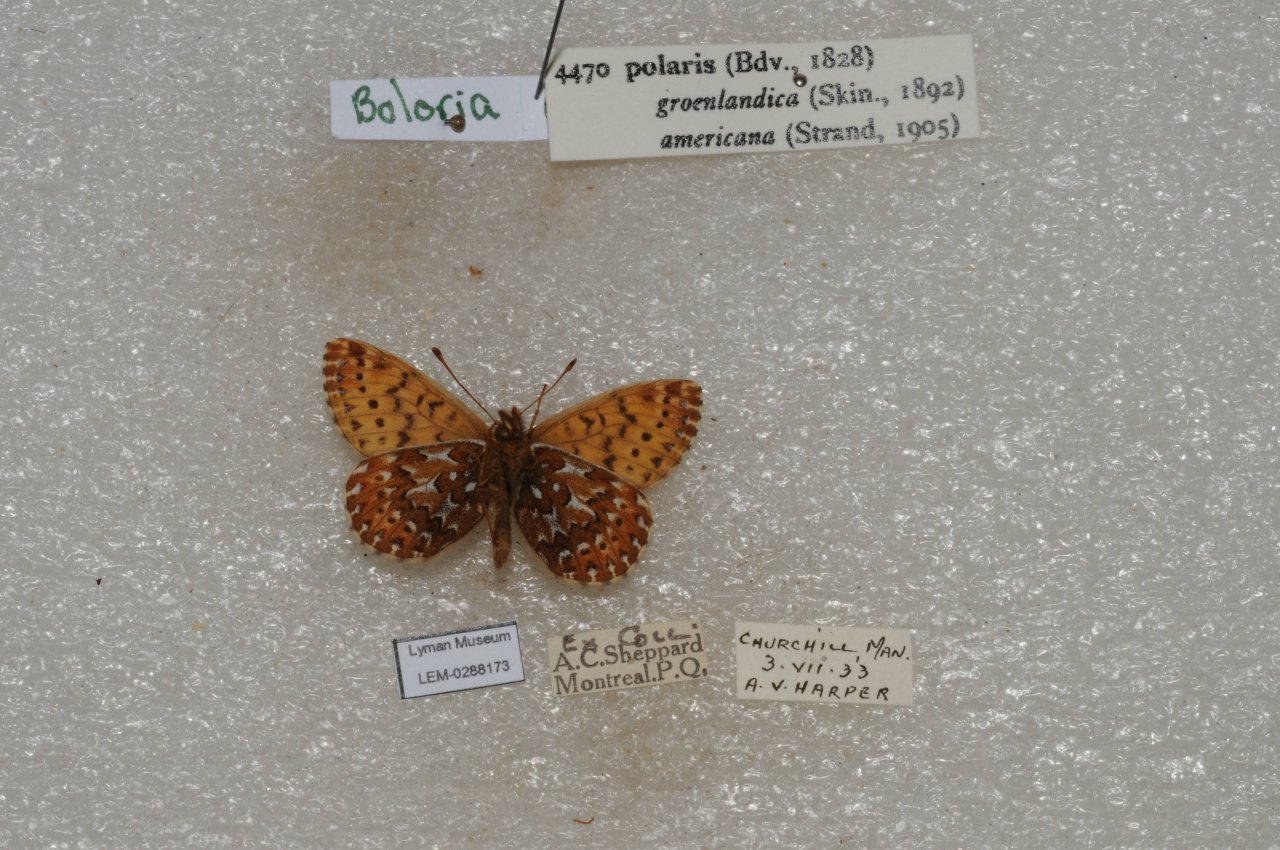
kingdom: Animalia
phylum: Arthropoda
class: Insecta
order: Lepidoptera
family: Nymphalidae
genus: Clossiana
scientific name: Clossiana polaris
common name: Polaris Fritillary
